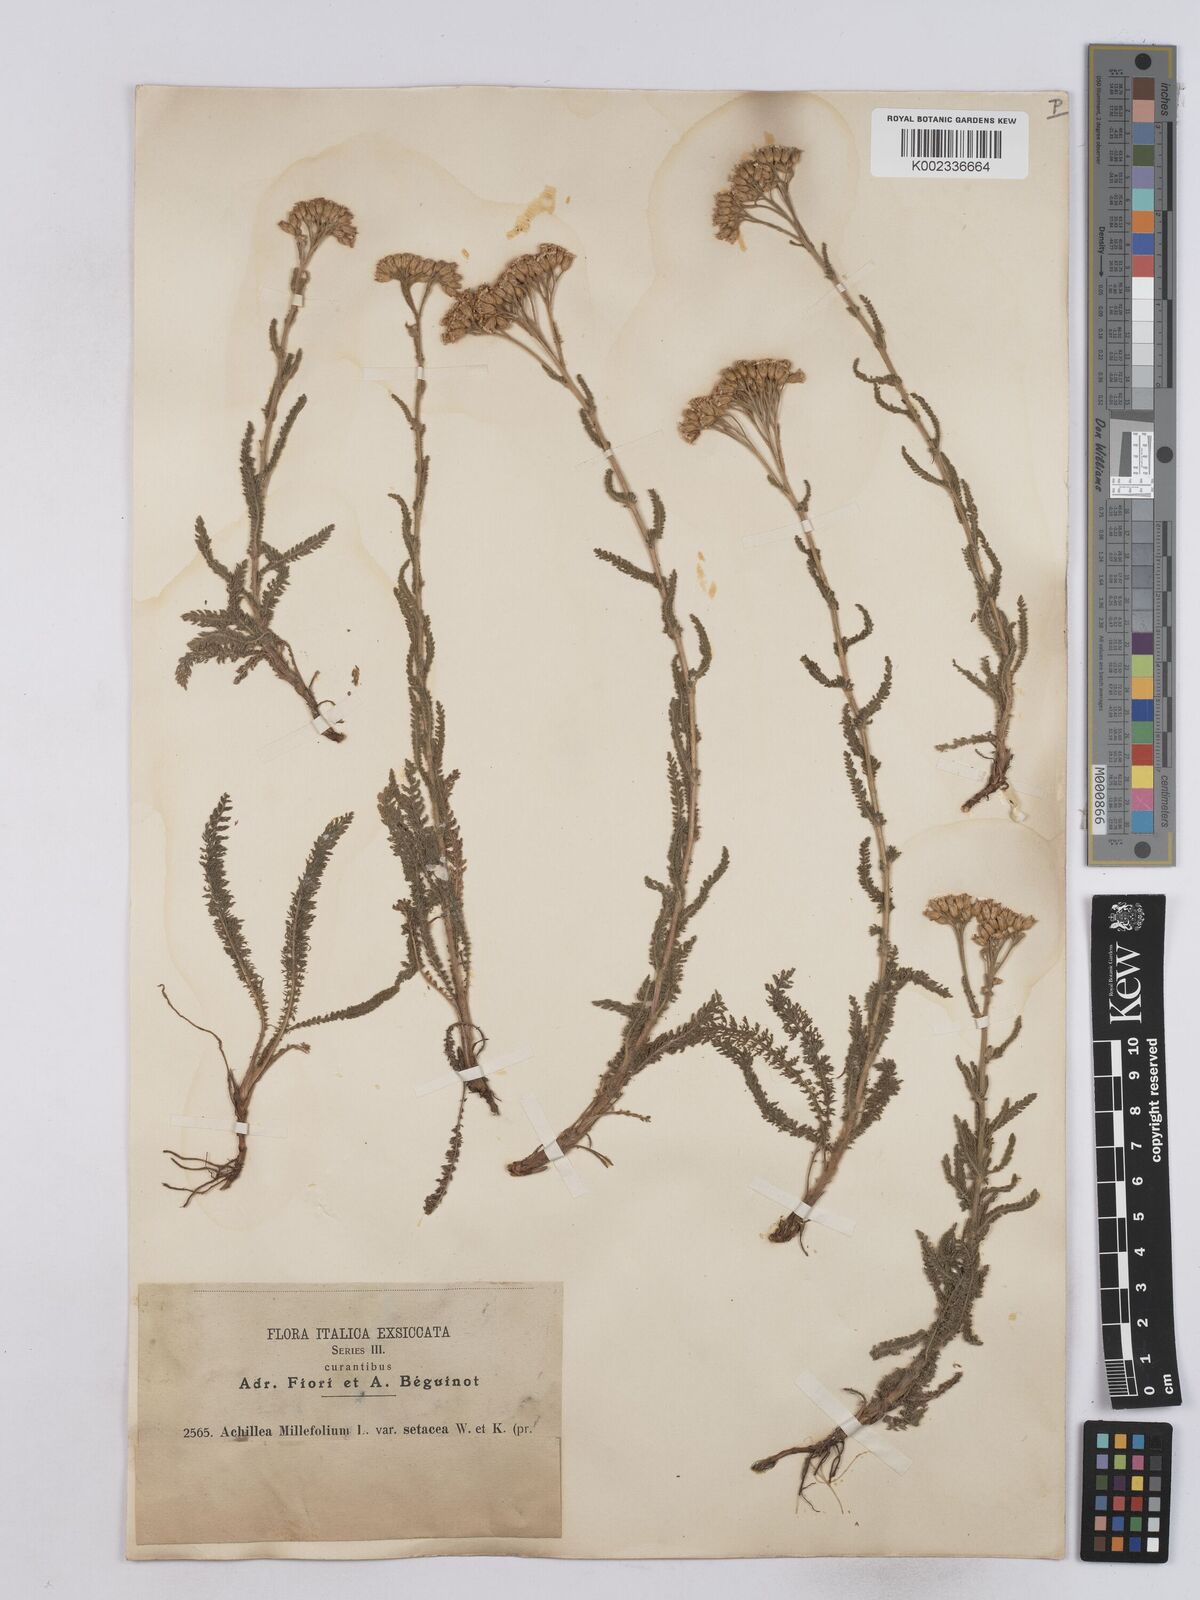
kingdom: Plantae
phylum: Tracheophyta
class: Magnoliopsida
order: Asterales
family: Asteraceae
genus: Achillea
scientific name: Achillea setacea
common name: Bristly yarrow
